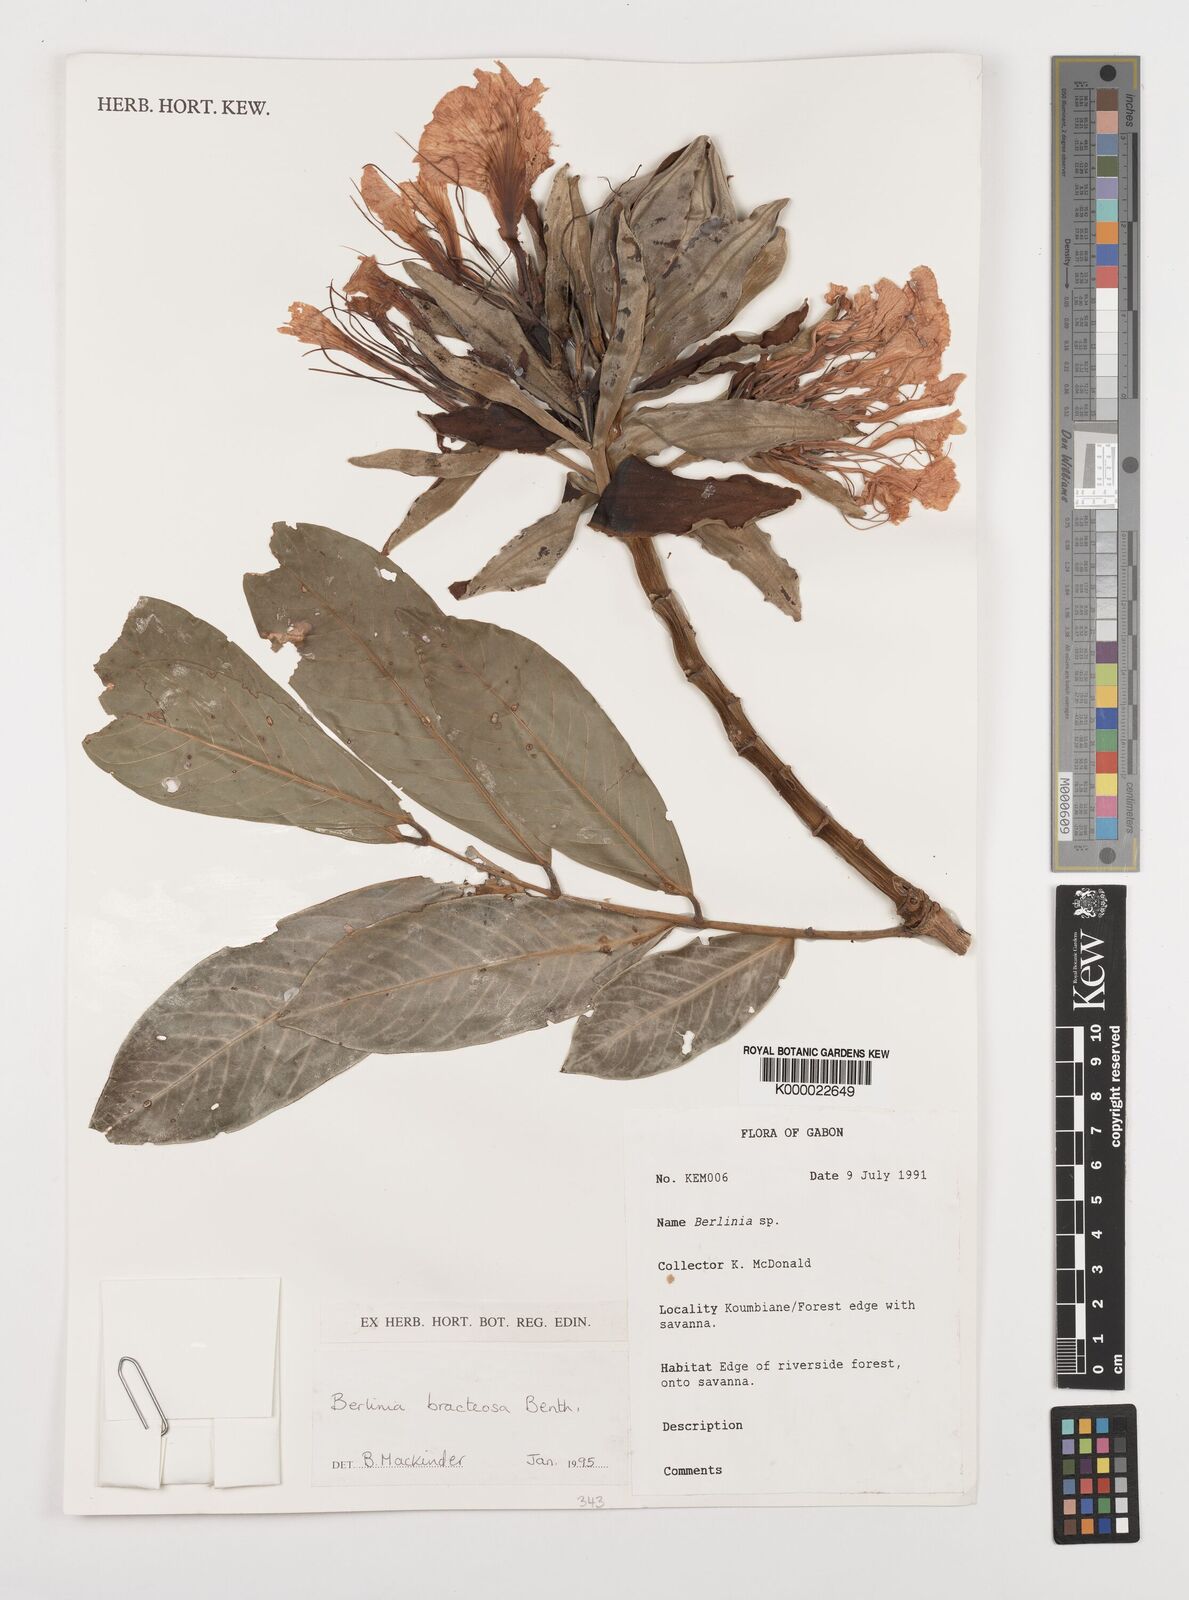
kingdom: Plantae
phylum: Tracheophyta
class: Magnoliopsida
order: Fabales
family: Fabaceae
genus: Berlinia
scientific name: Berlinia bracteosa
